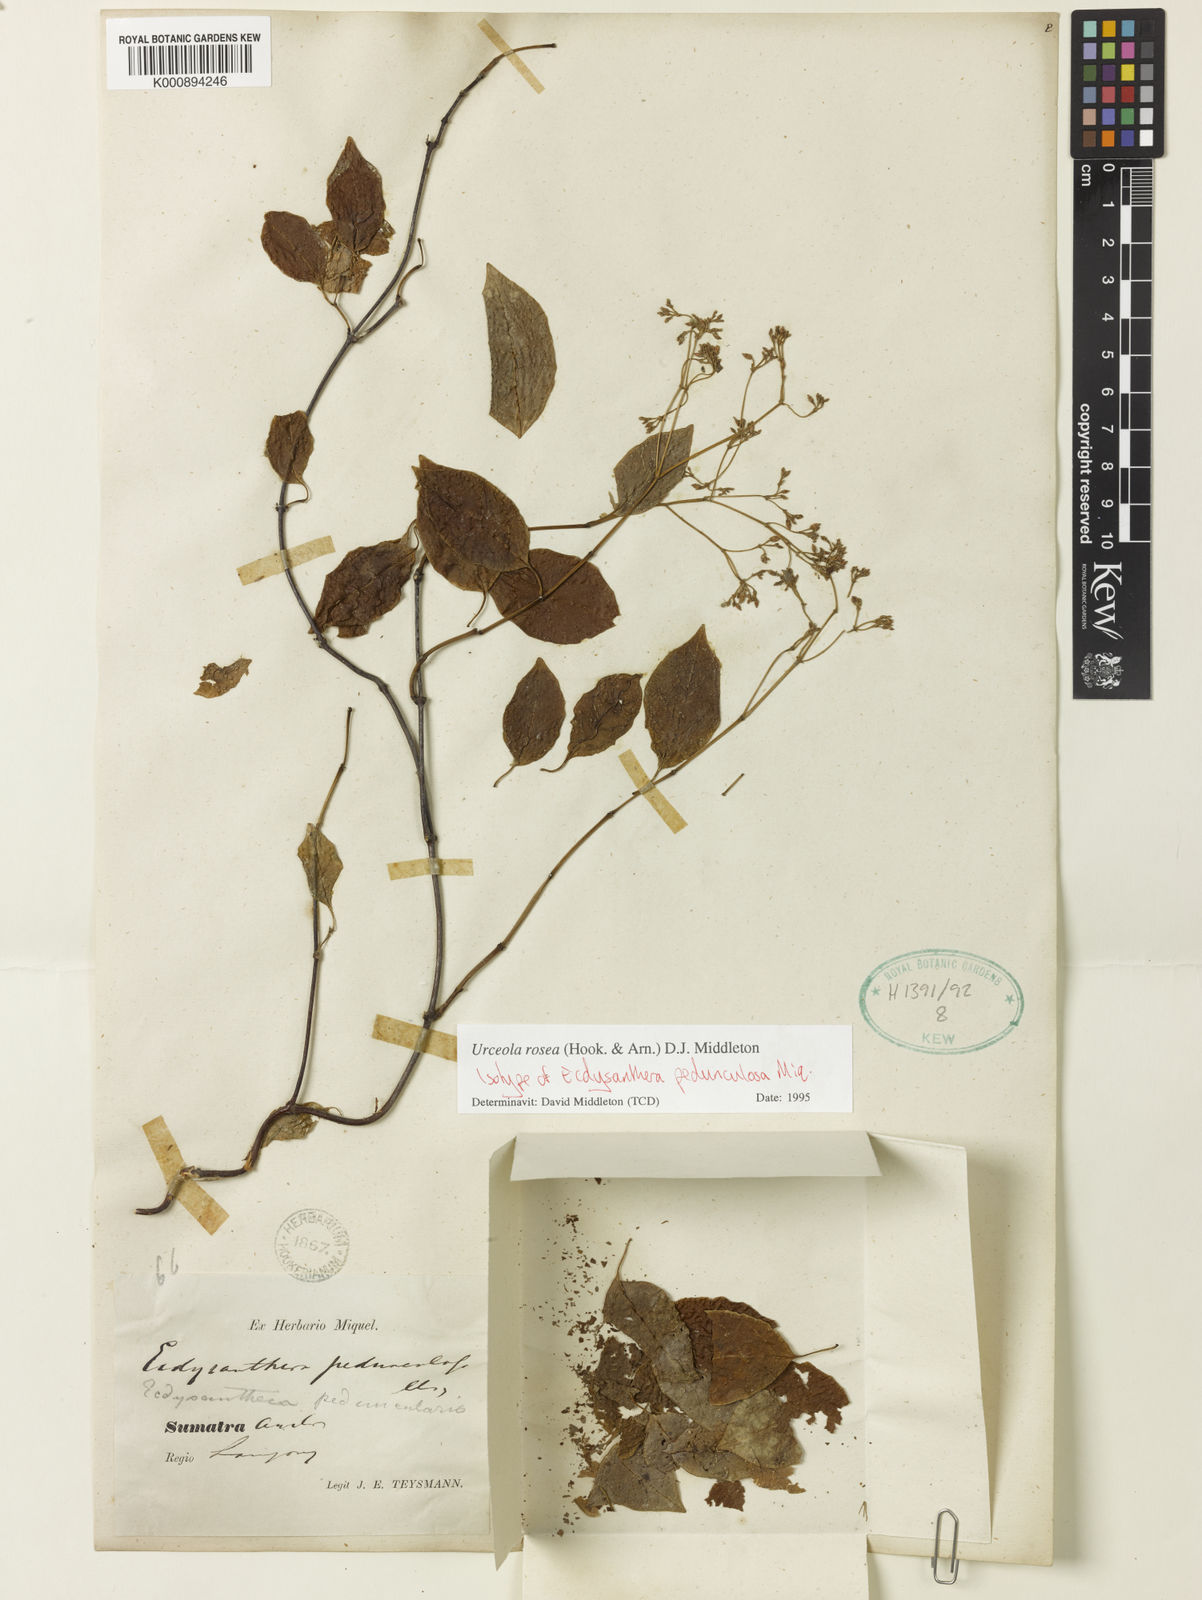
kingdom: Plantae
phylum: Tracheophyta
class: Magnoliopsida
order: Gentianales
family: Apocynaceae
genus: Urceola
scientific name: Urceola rosea
